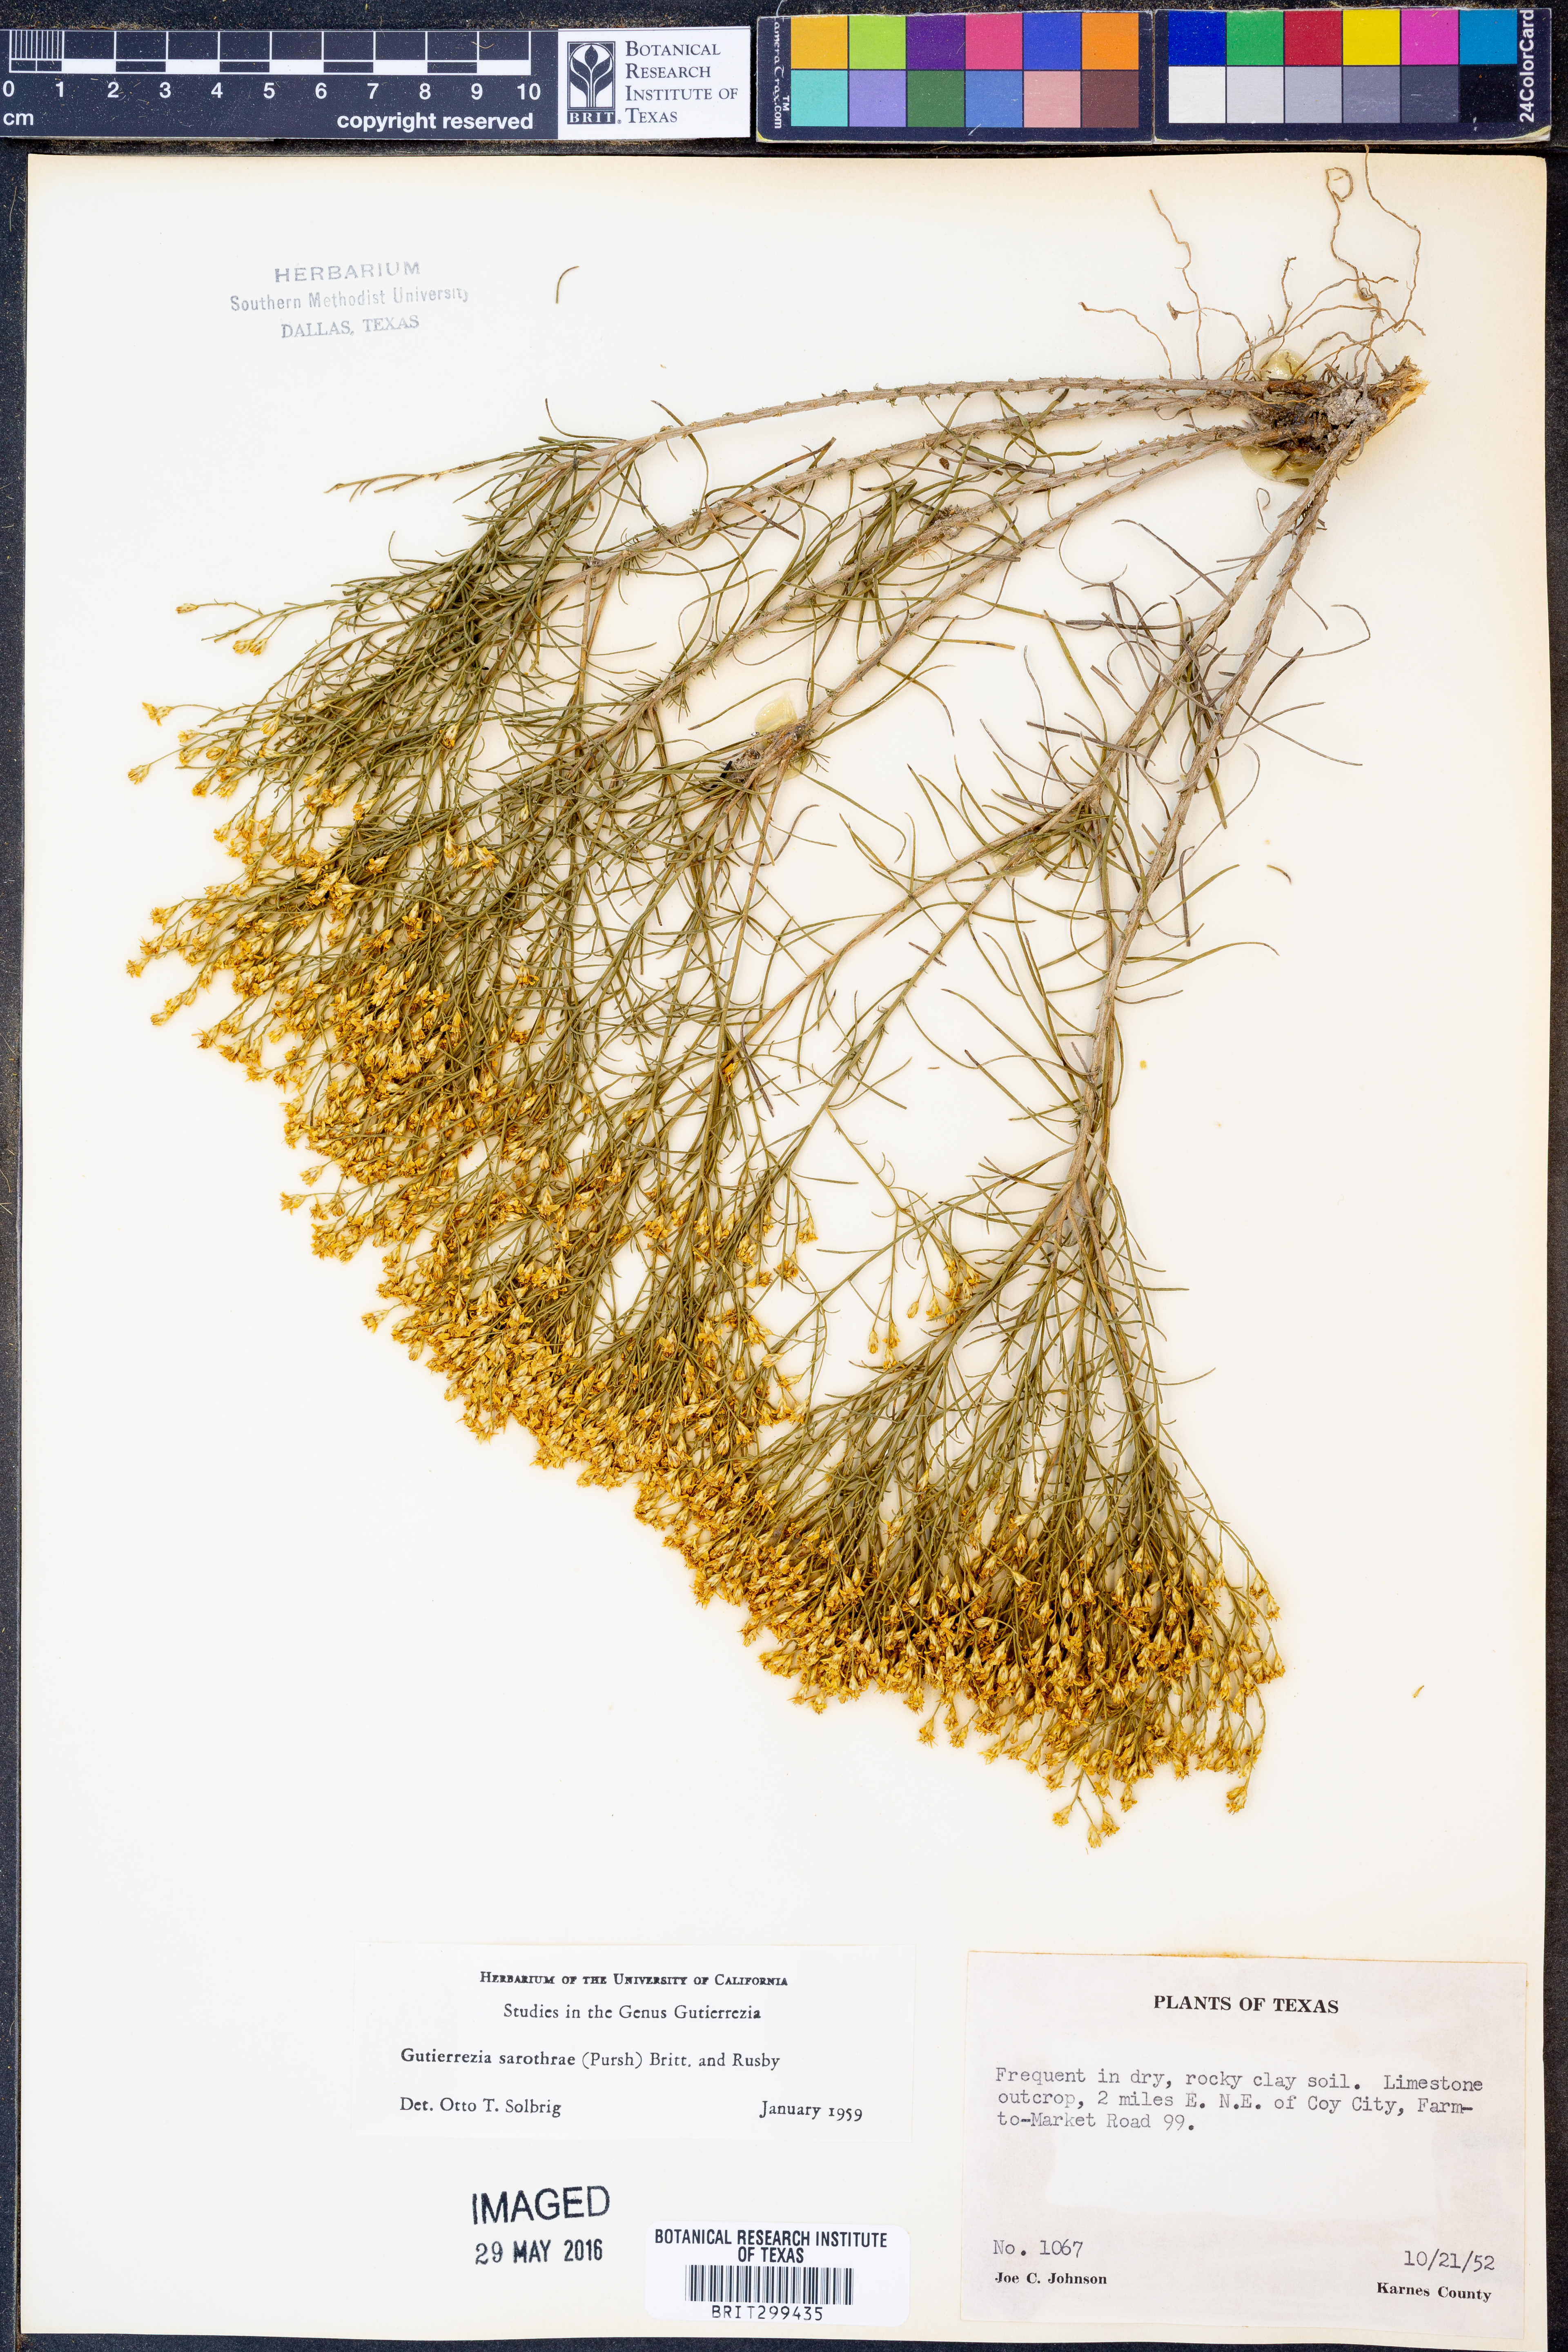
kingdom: Plantae
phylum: Tracheophyta
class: Magnoliopsida
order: Asterales
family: Asteraceae
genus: Gutierrezia
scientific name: Gutierrezia sarothrae
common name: Broom snakeweed
